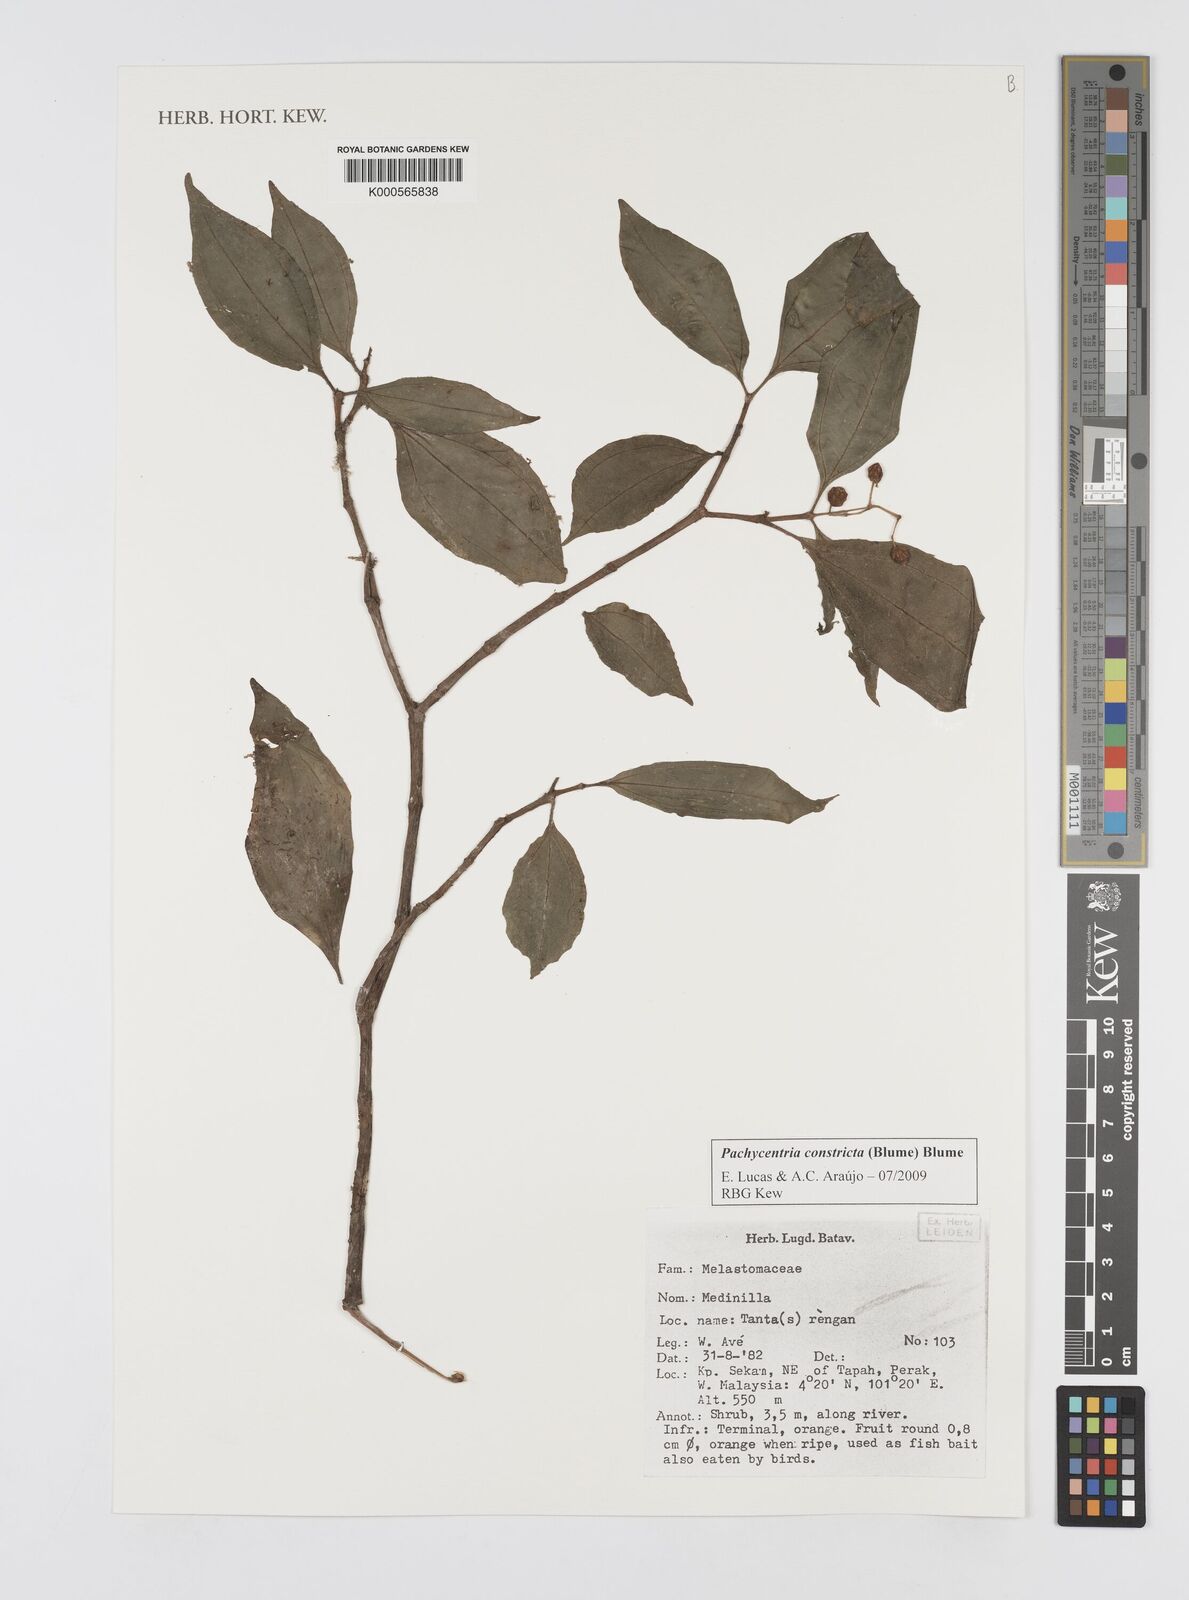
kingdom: Plantae
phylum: Tracheophyta
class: Magnoliopsida
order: Myrtales
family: Melastomataceae
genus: Pachycentria
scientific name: Pachycentria constricta
